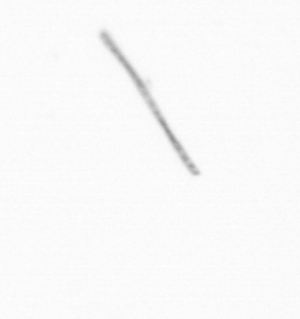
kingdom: Chromista
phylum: Ochrophyta
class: Bacillariophyceae
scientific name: Bacillariophyceae
